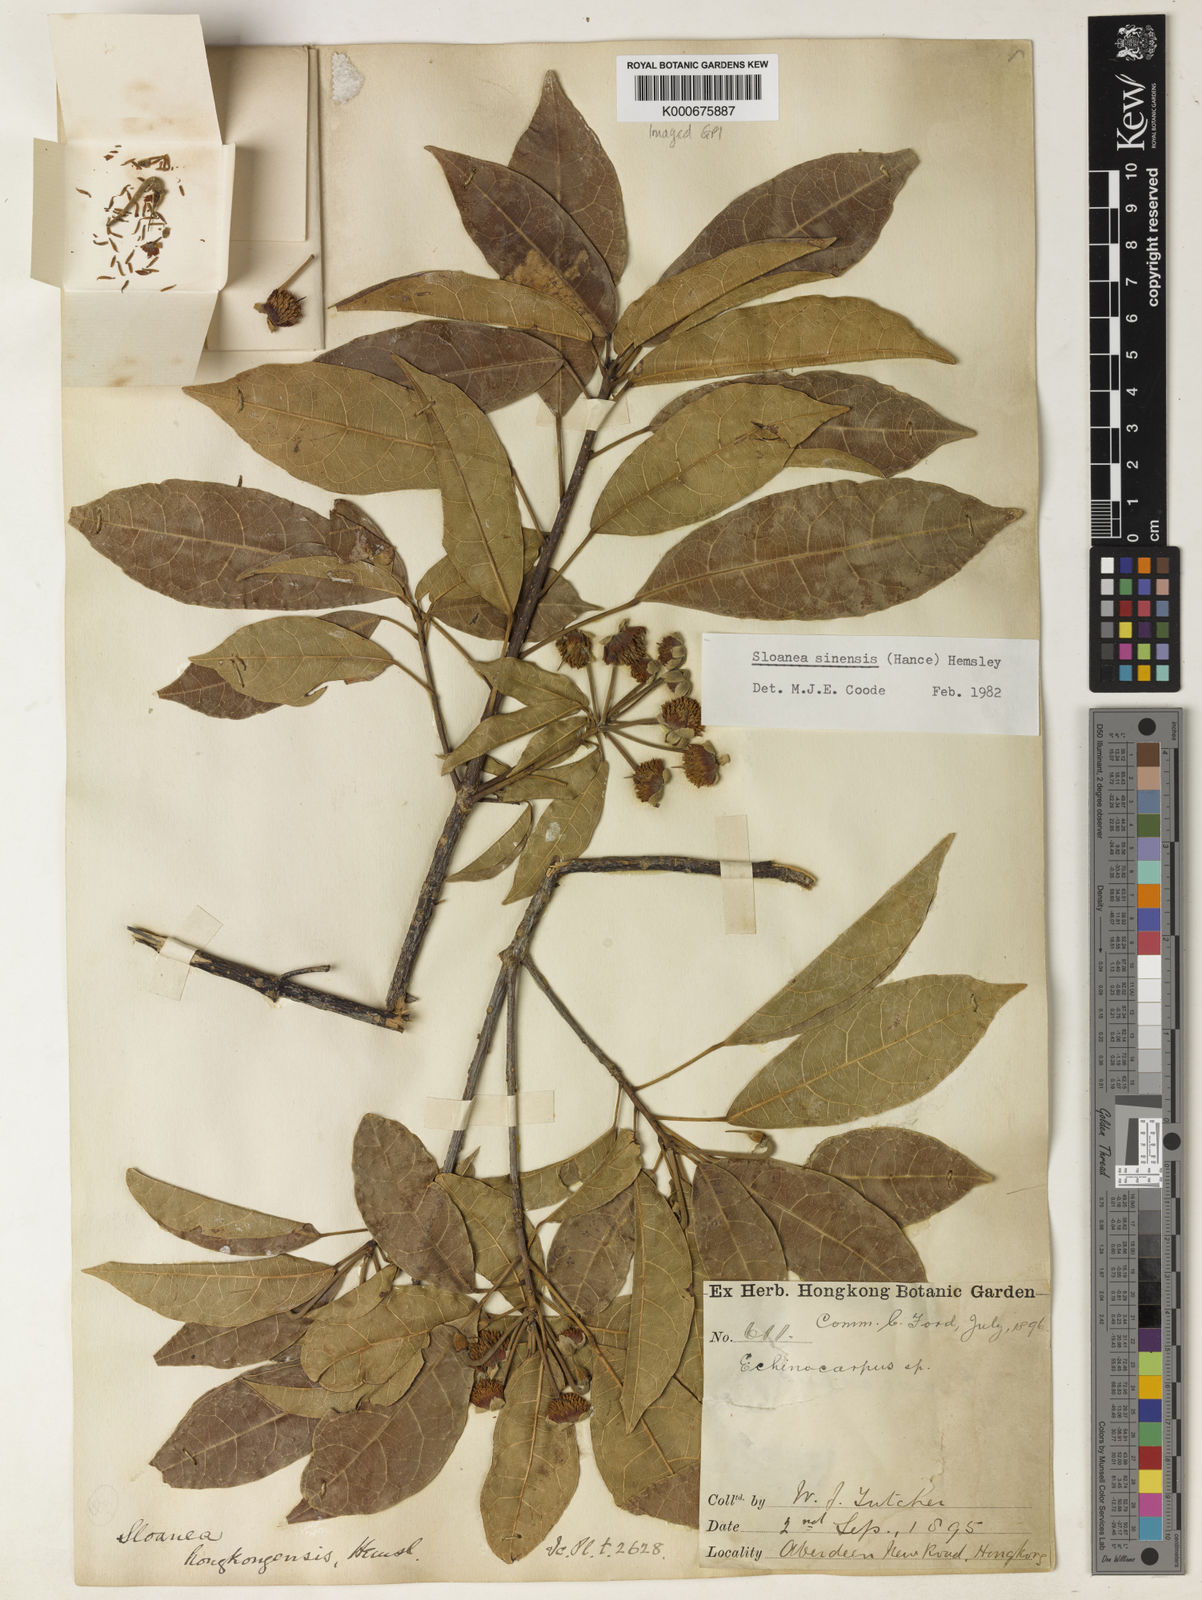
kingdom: Plantae
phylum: Tracheophyta
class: Magnoliopsida
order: Oxalidales
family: Elaeocarpaceae
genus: Sloanea
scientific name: Sloanea sinensis
